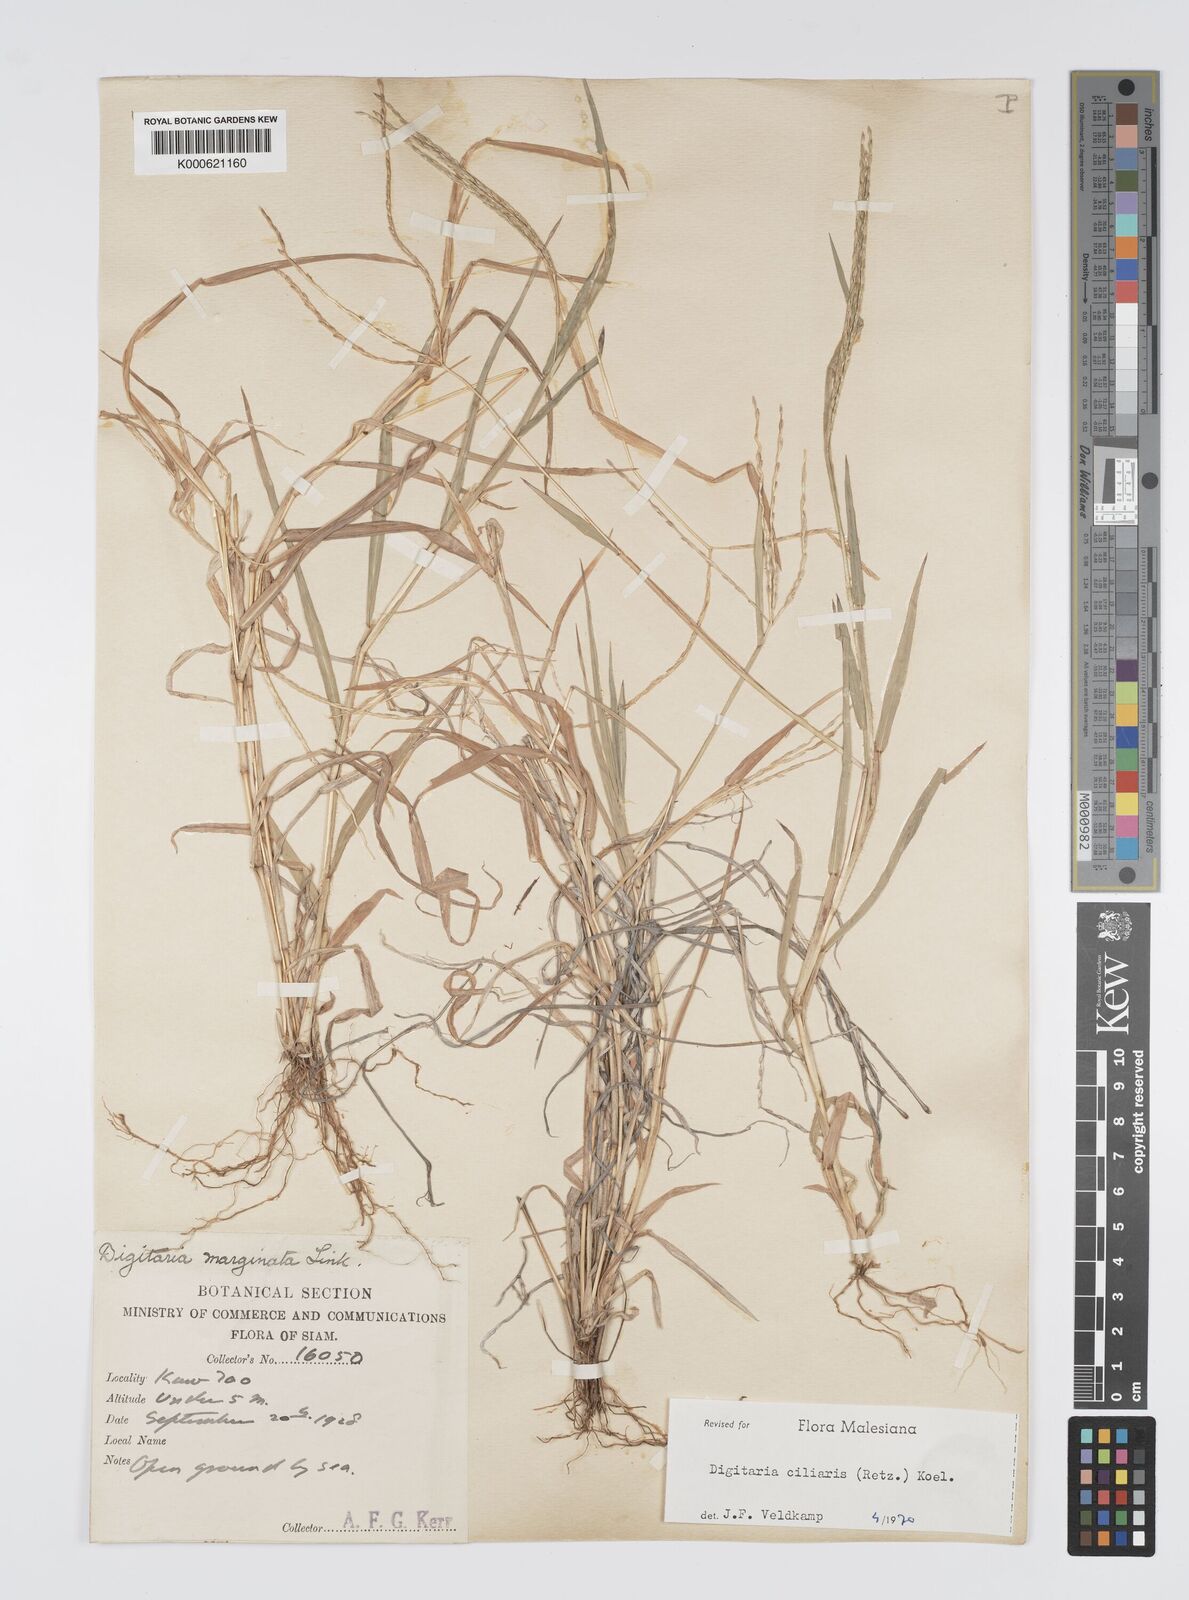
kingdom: Plantae
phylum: Tracheophyta
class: Liliopsida
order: Poales
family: Poaceae
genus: Digitaria
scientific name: Digitaria ciliaris
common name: Tropical finger-grass
